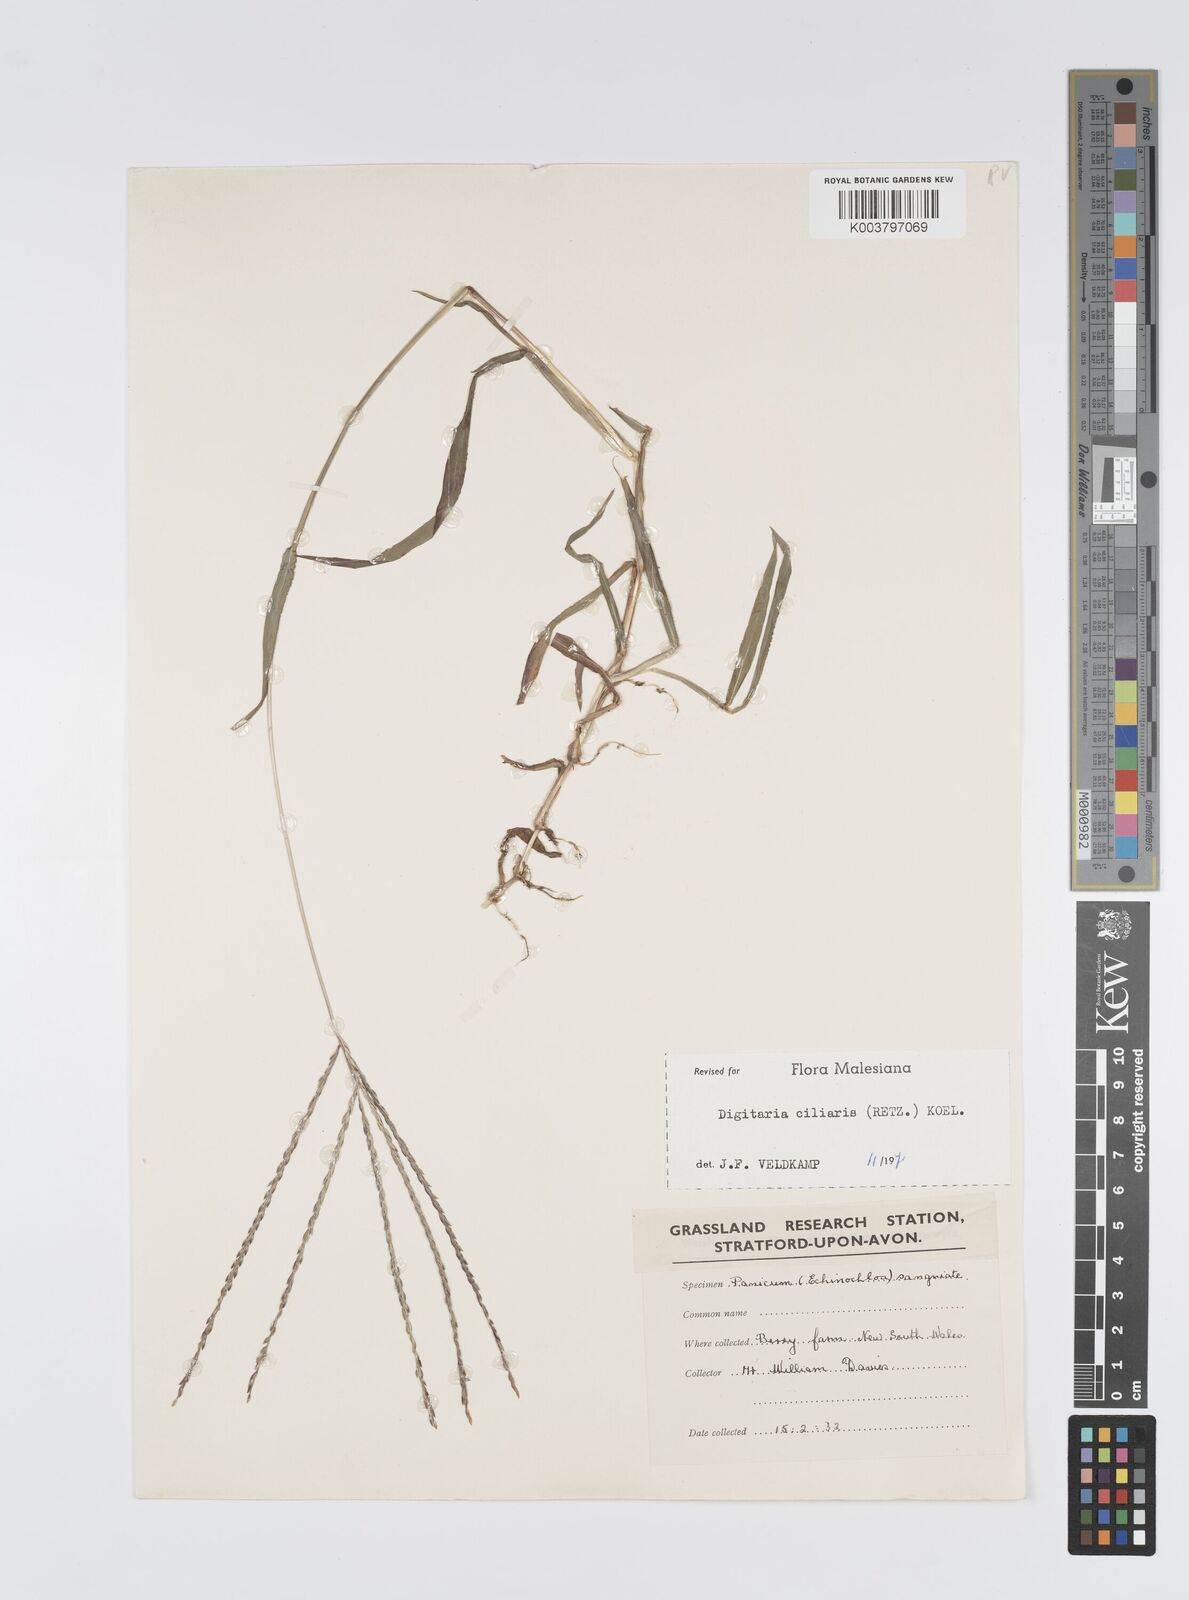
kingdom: Plantae
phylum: Tracheophyta
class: Liliopsida
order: Poales
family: Poaceae
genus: Digitaria
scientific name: Digitaria ciliaris
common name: Tropical finger-grass
